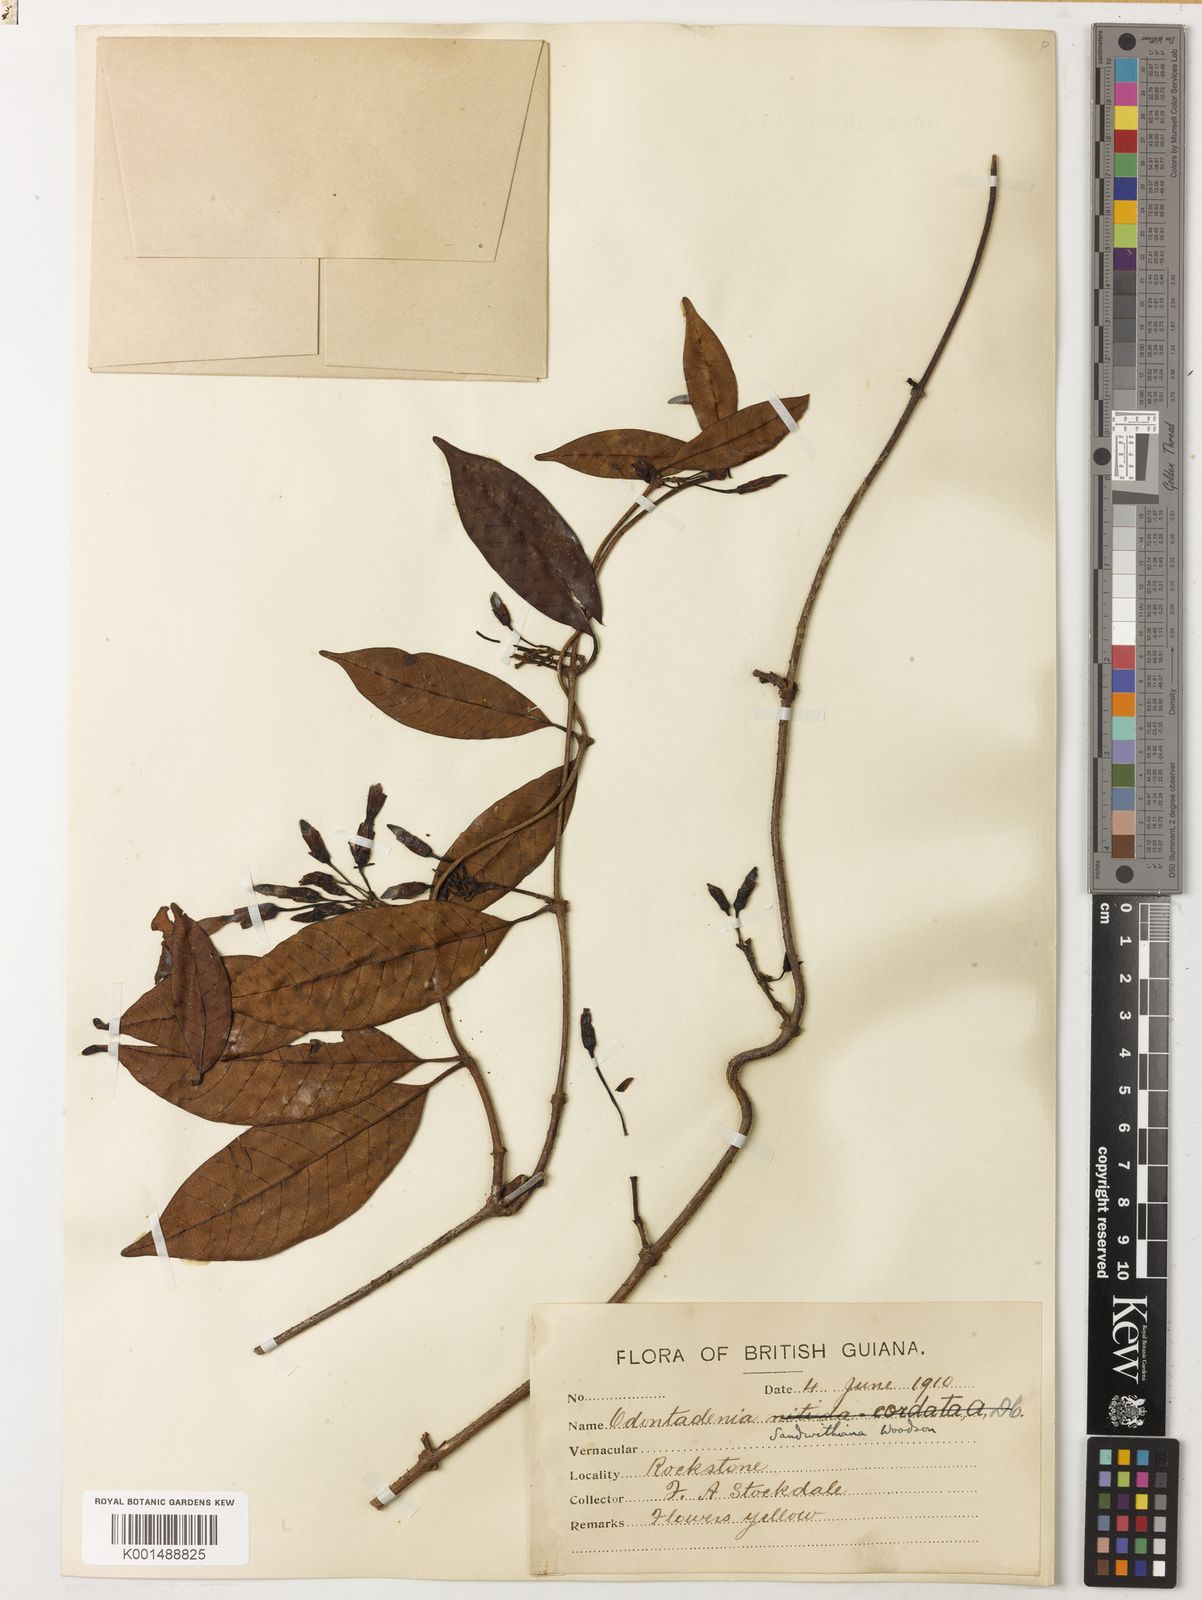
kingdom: Plantae
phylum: Tracheophyta
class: Magnoliopsida
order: Gentianales
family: Apocynaceae
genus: Odontadenia
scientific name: Odontadenia kochii
